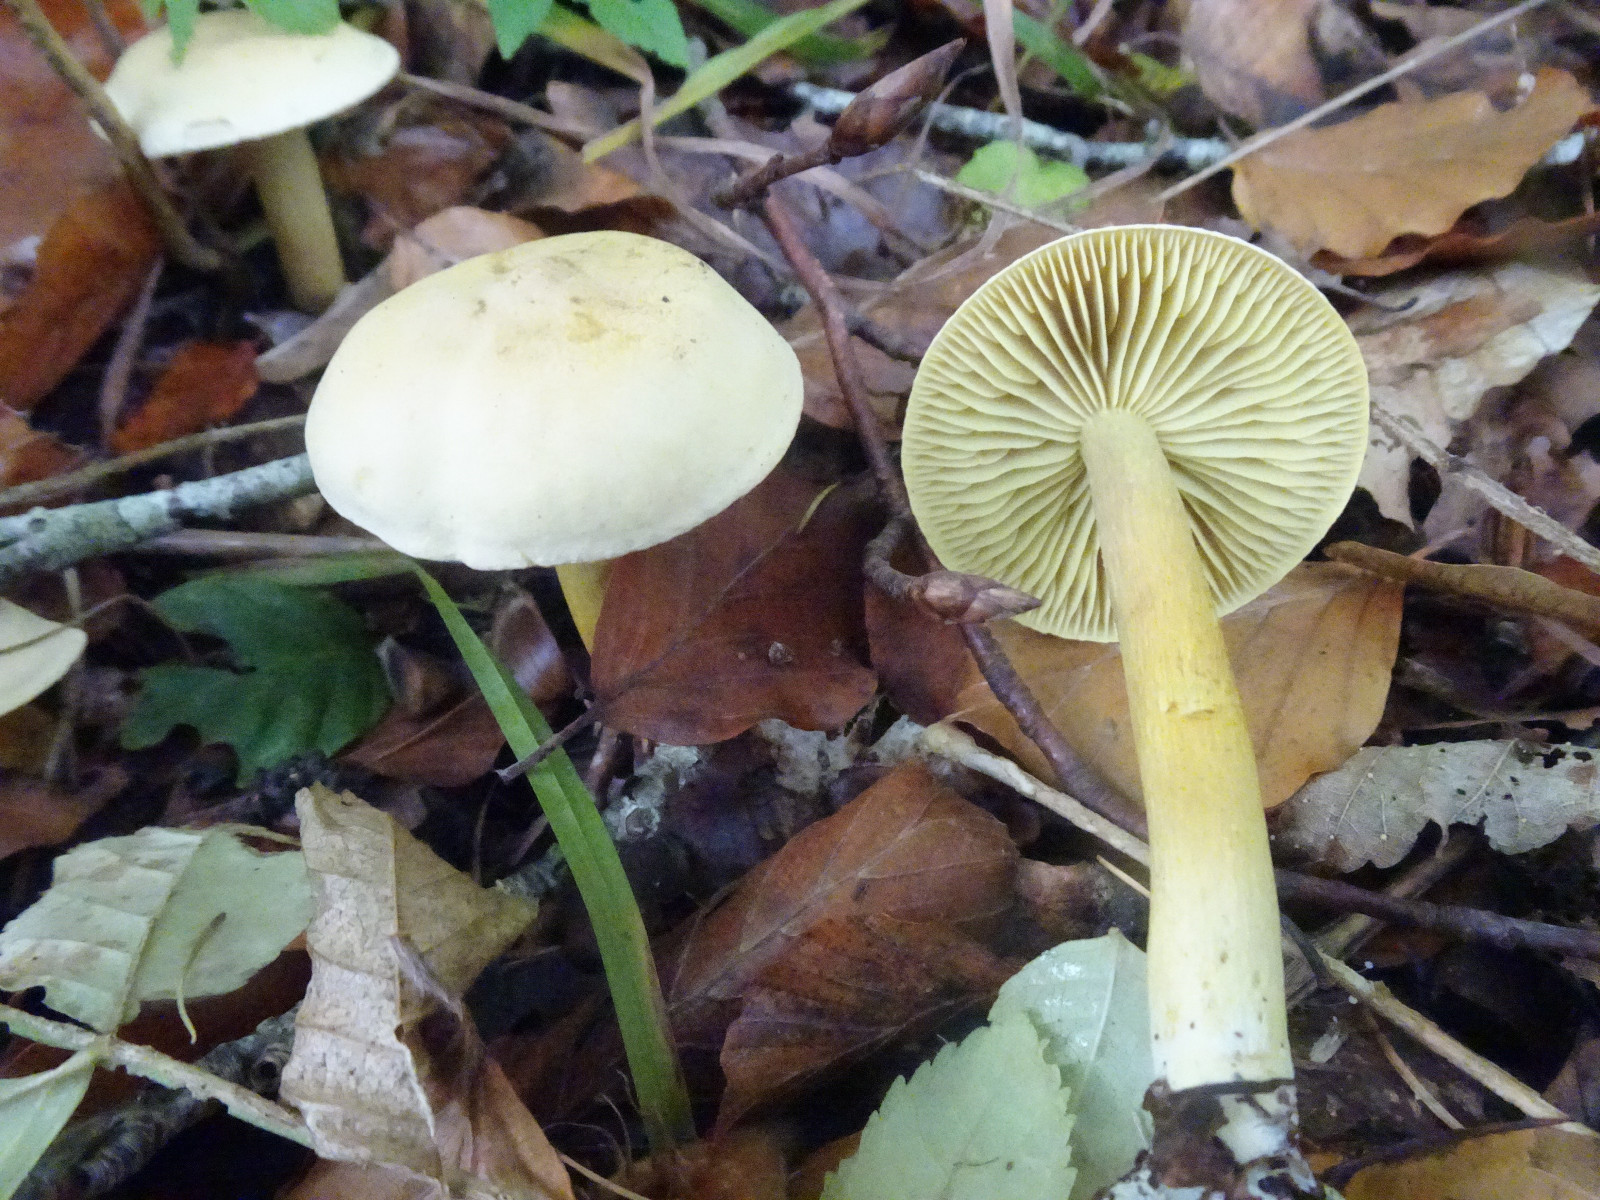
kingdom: Fungi
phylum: Basidiomycota
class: Agaricomycetes
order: Agaricales
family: Tricholomataceae
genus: Tricholoma
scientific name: Tricholoma sulphureum
